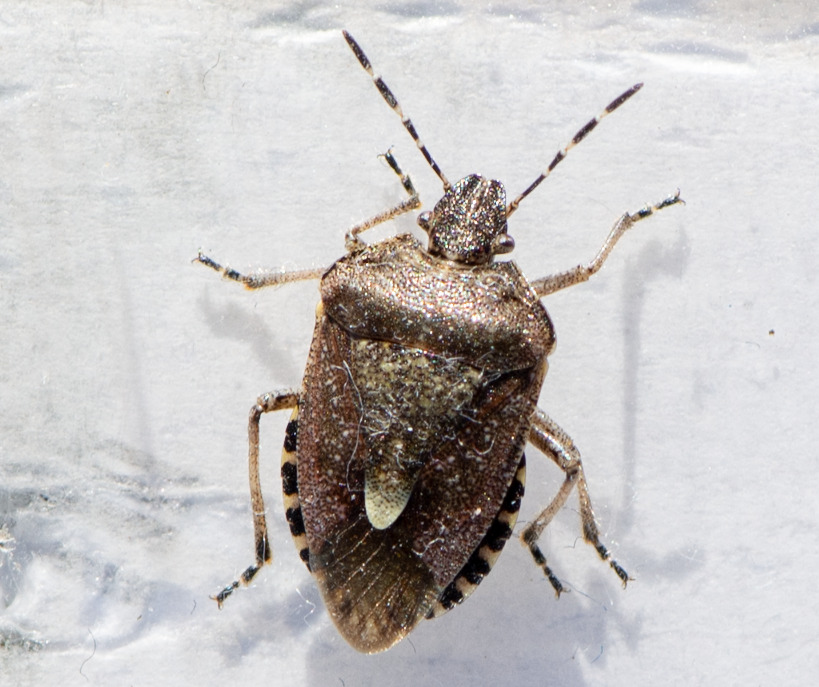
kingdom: Animalia
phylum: Arthropoda
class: Insecta
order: Hemiptera
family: Pentatomidae
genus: Dolycoris
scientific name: Dolycoris baccarum
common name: Almindelig bærtæge
